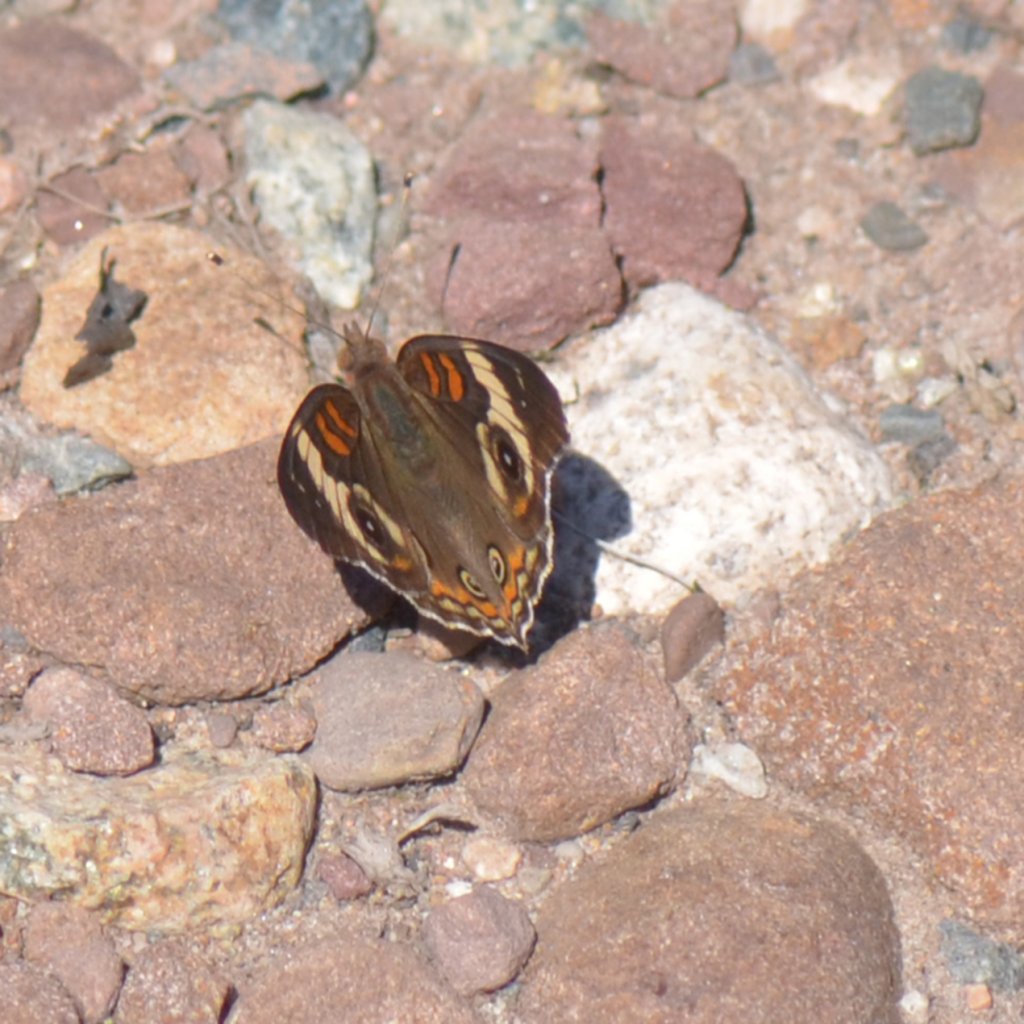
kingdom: Animalia
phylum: Arthropoda
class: Insecta
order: Lepidoptera
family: Nymphalidae
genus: Junonia
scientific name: Junonia coenia
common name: Common Buckeye
